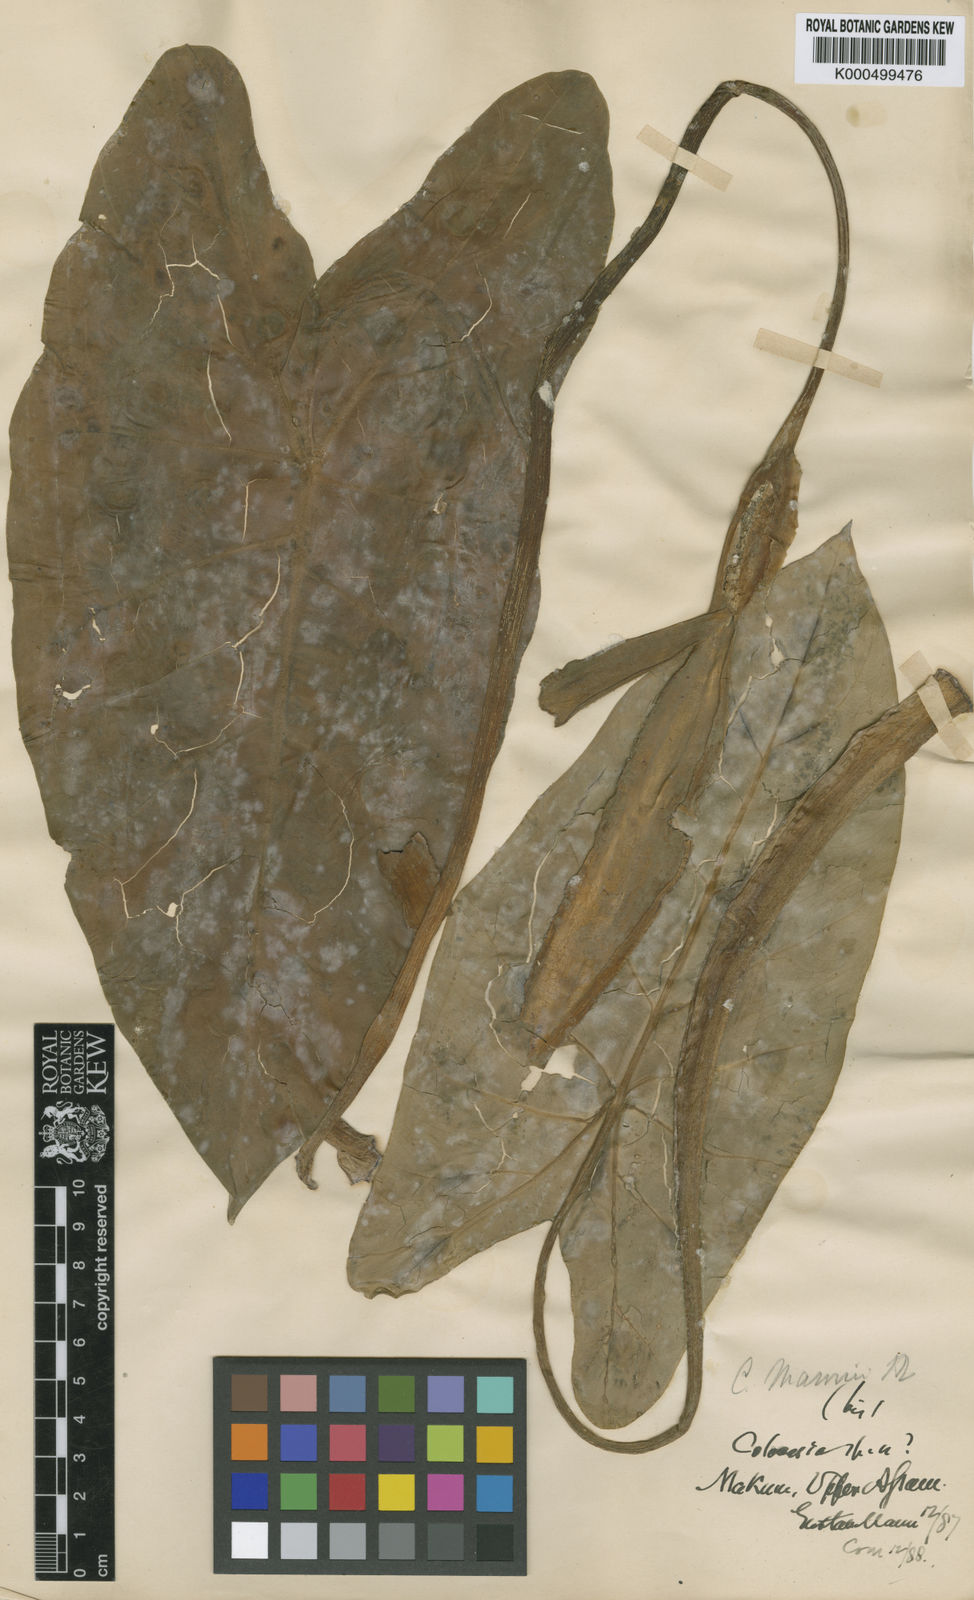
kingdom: Plantae
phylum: Tracheophyta
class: Liliopsida
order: Alismatales
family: Araceae
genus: Colocasia
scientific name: Colocasia mannii
